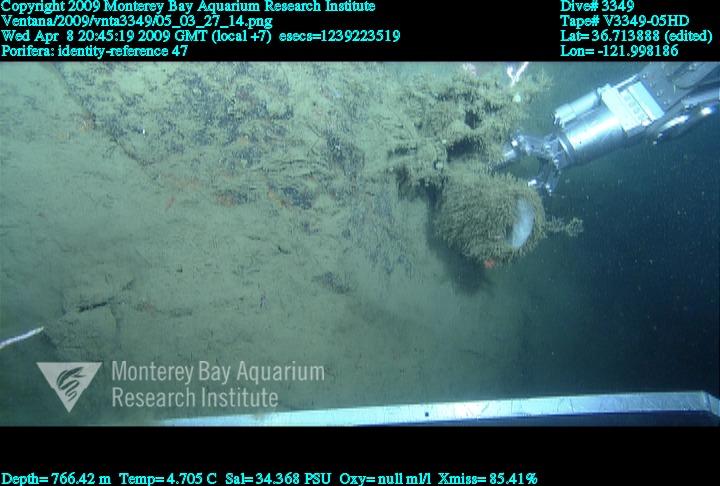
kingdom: Animalia
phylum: Porifera
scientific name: Porifera
